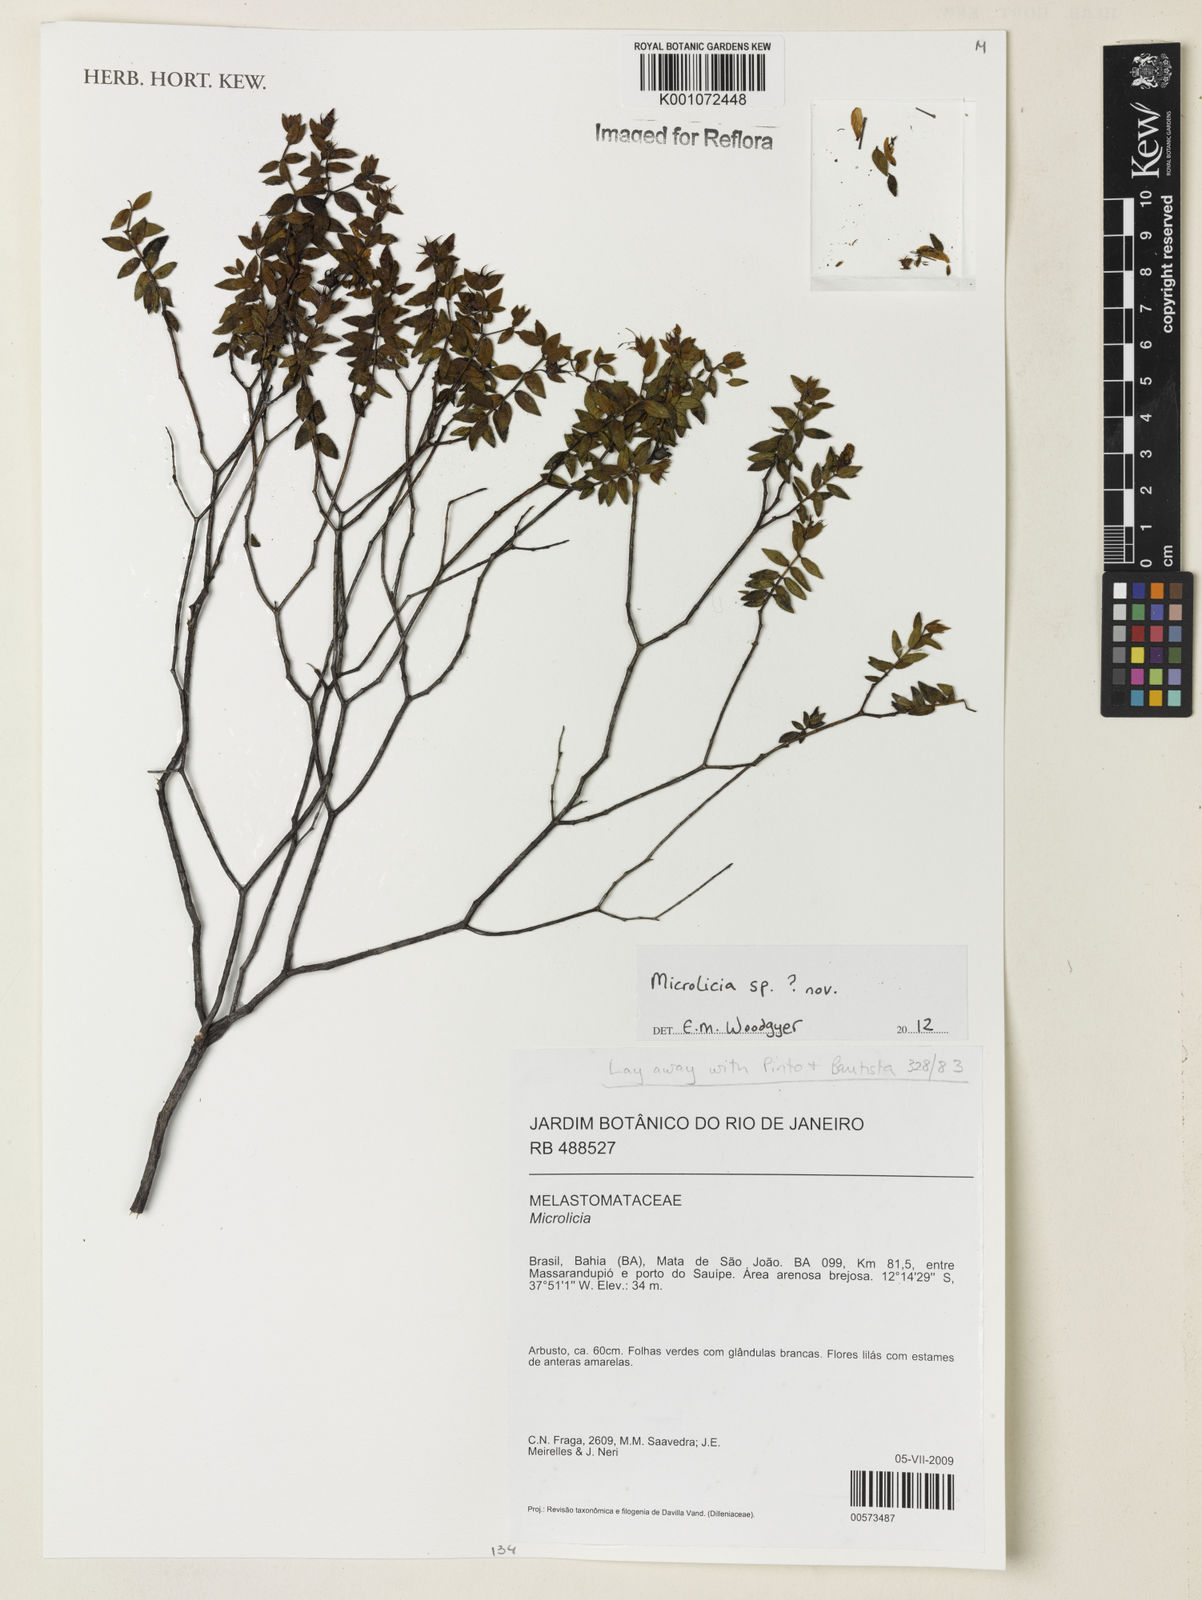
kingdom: Plantae
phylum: Tracheophyta
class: Magnoliopsida
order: Myrtales
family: Melastomataceae
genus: Microlicia
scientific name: Microlicia
